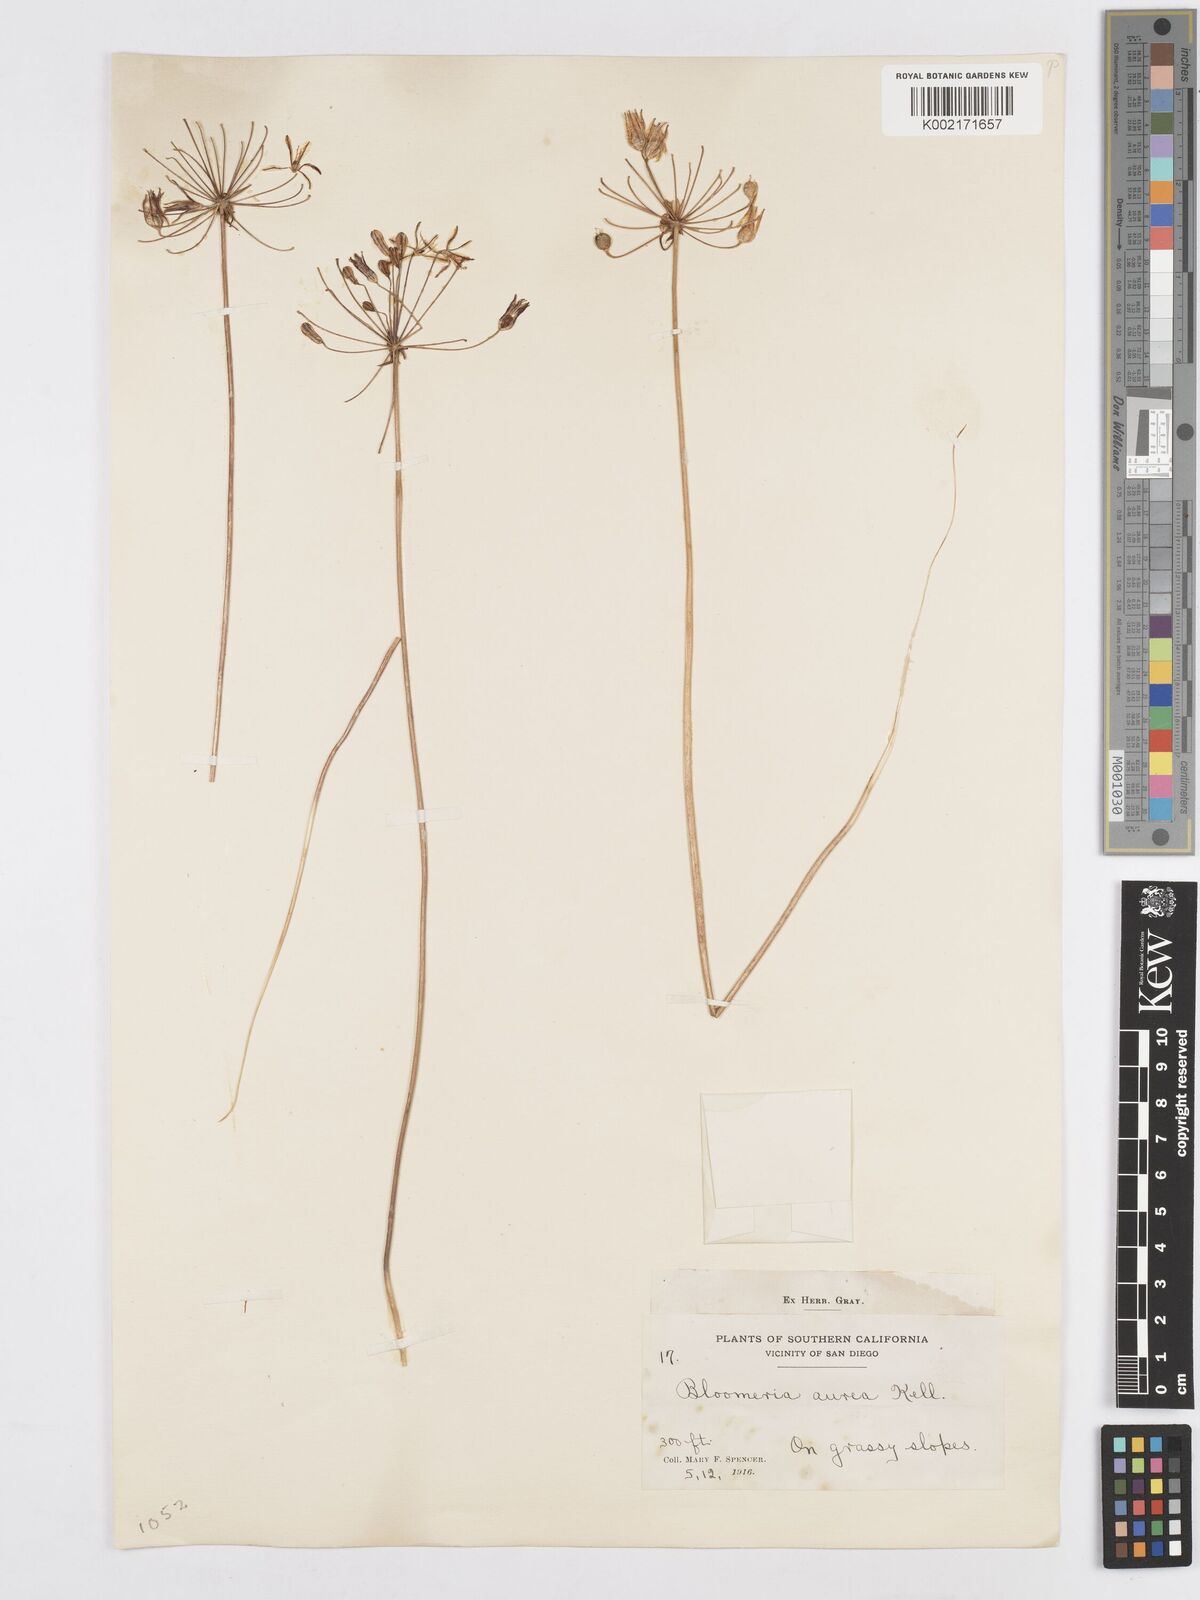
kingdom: Plantae
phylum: Tracheophyta
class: Liliopsida
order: Asparagales
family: Asparagaceae
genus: Bloomeria
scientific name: Bloomeria crocea
